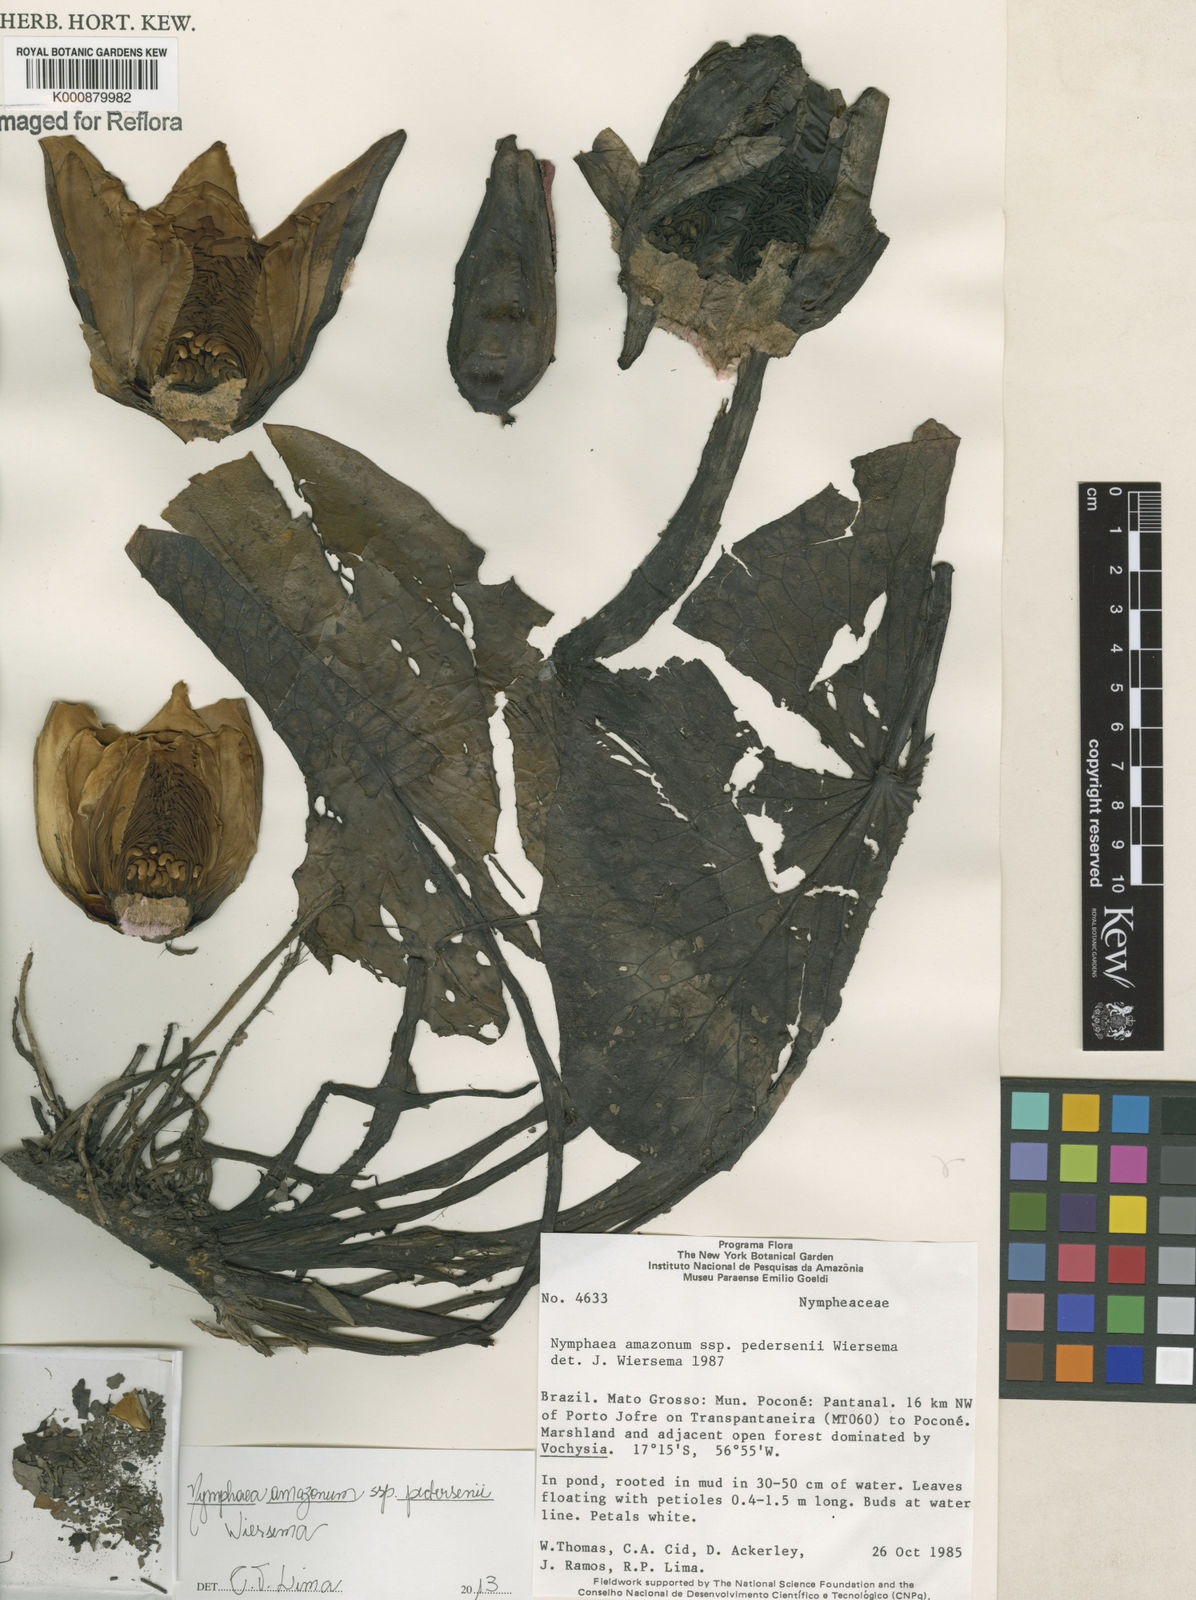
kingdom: Plantae
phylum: Tracheophyta
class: Magnoliopsida
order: Nymphaeales
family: Nymphaeaceae
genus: Nymphaea
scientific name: Nymphaea pedersenii
